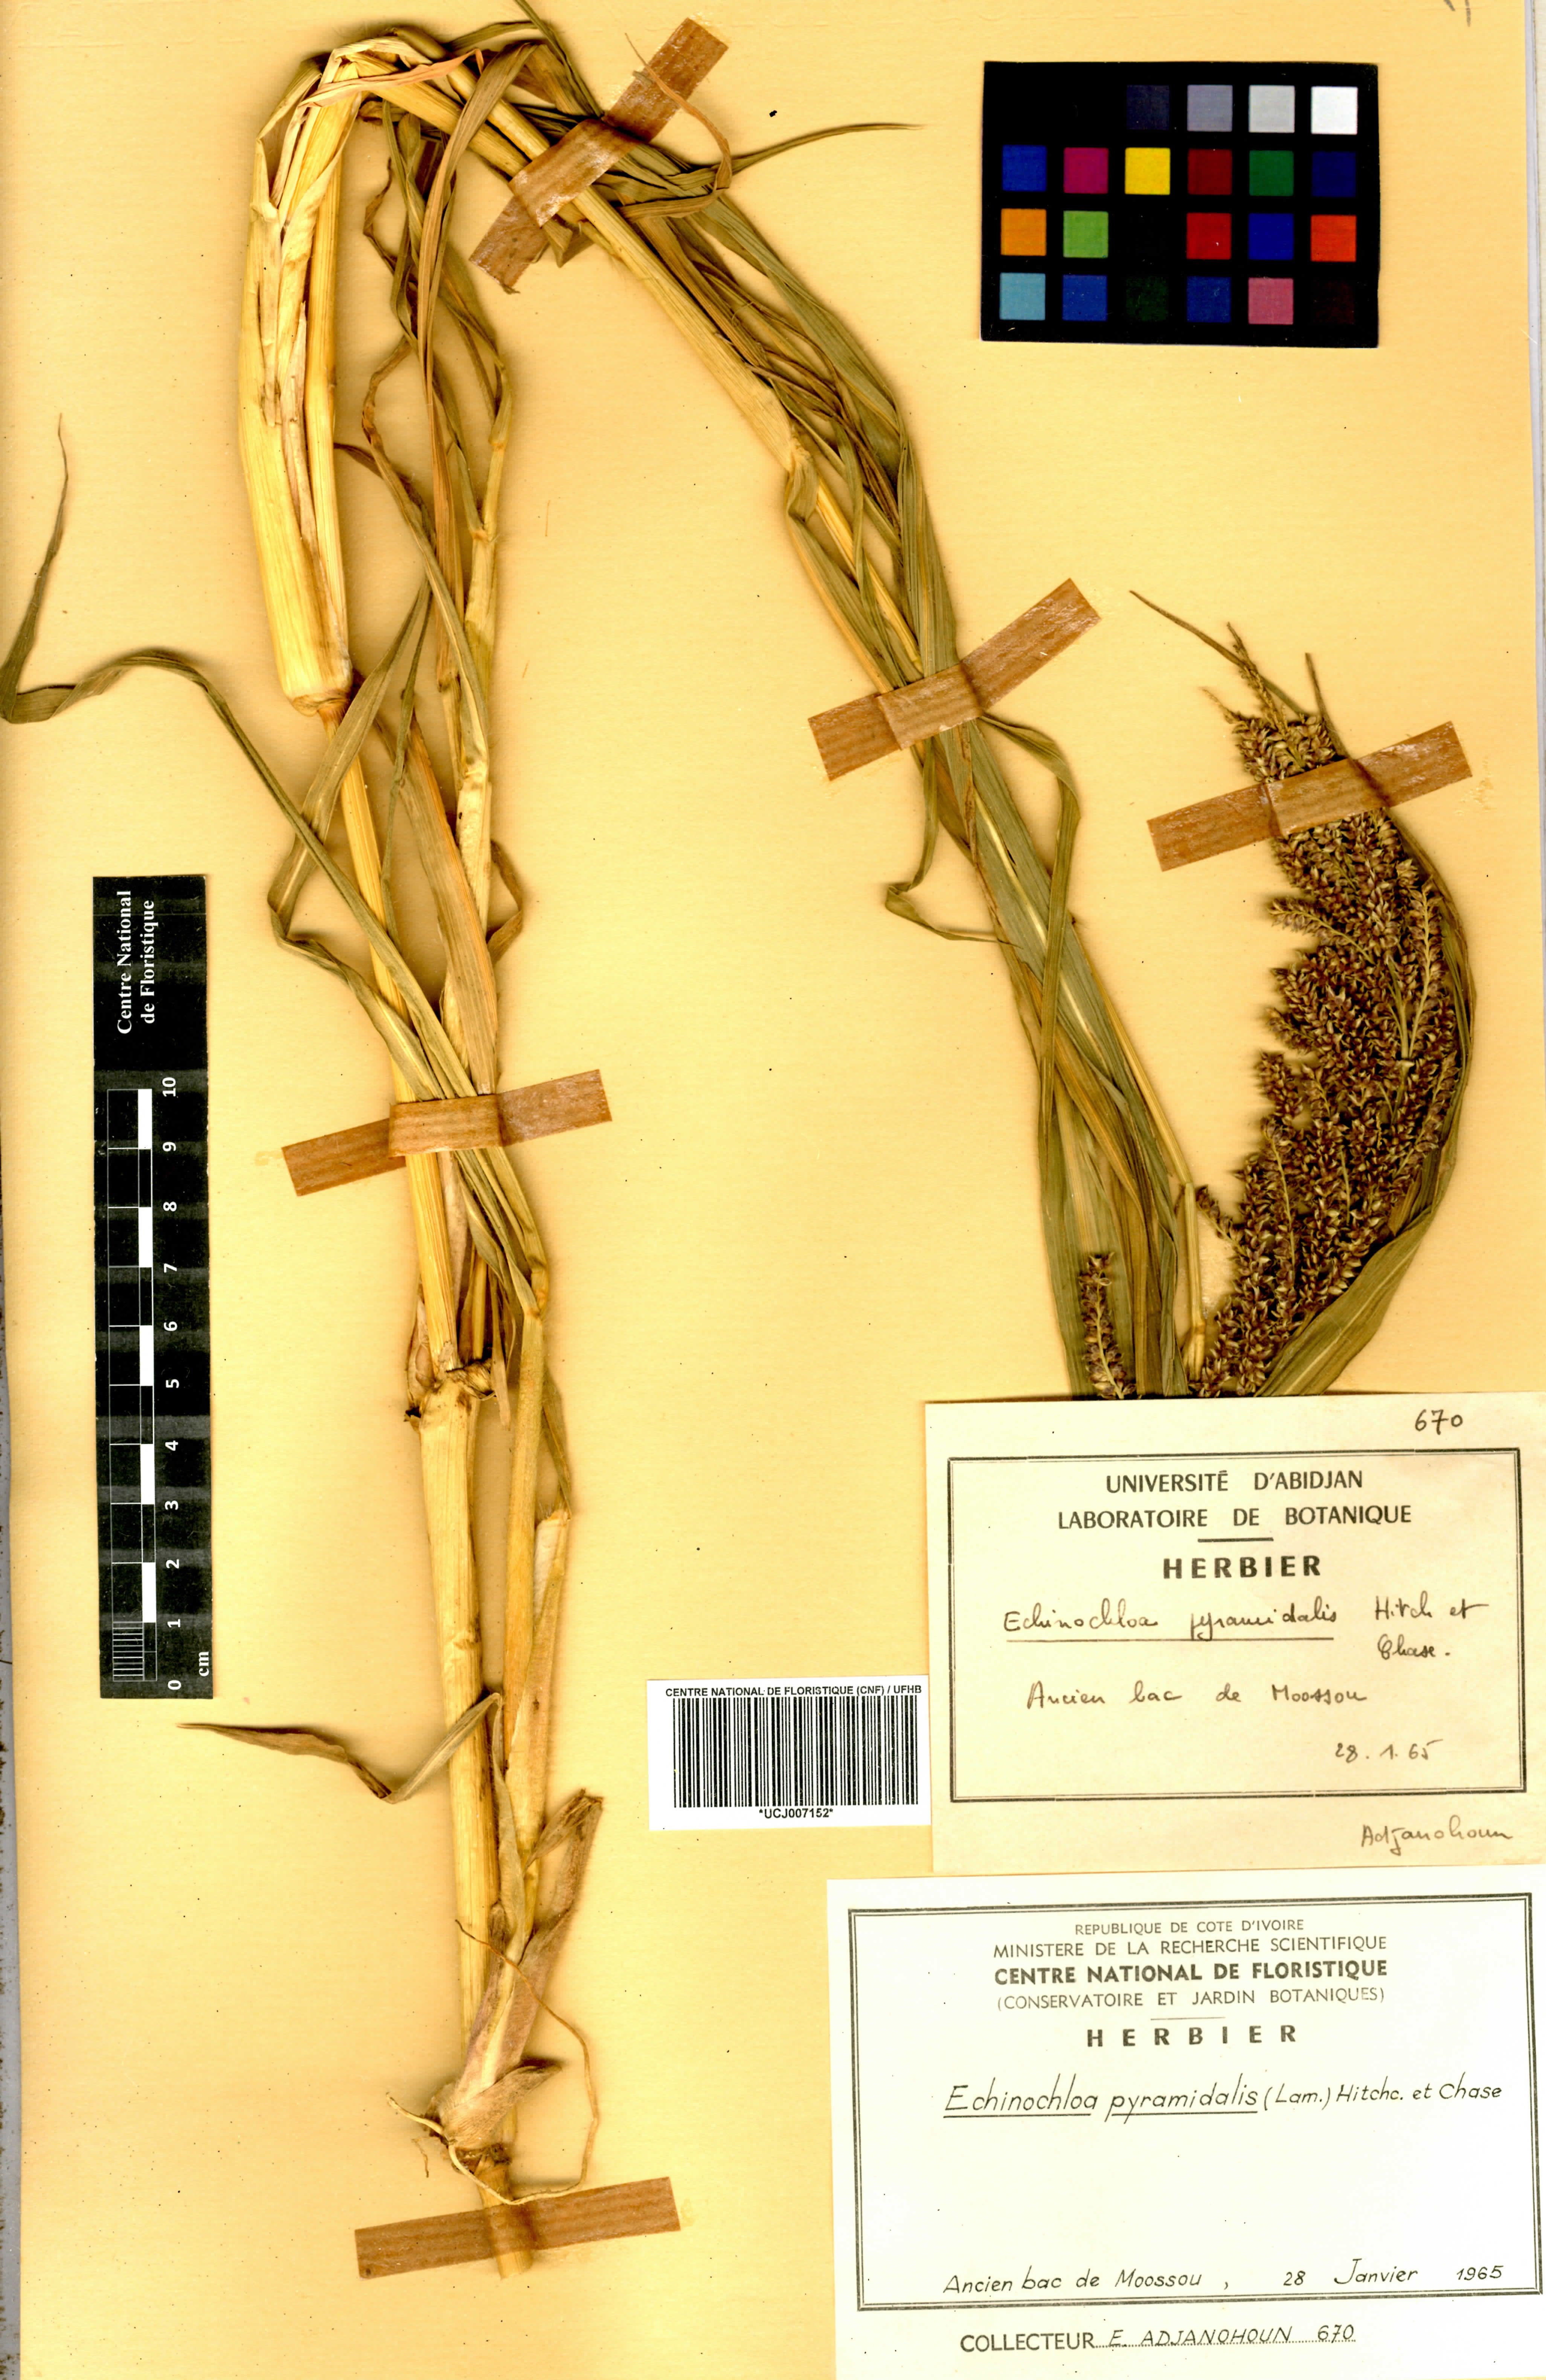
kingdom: Plantae
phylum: Tracheophyta
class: Liliopsida
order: Poales
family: Poaceae
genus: Echinochloa
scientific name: Echinochloa pyramidalis
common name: Antelope grass
